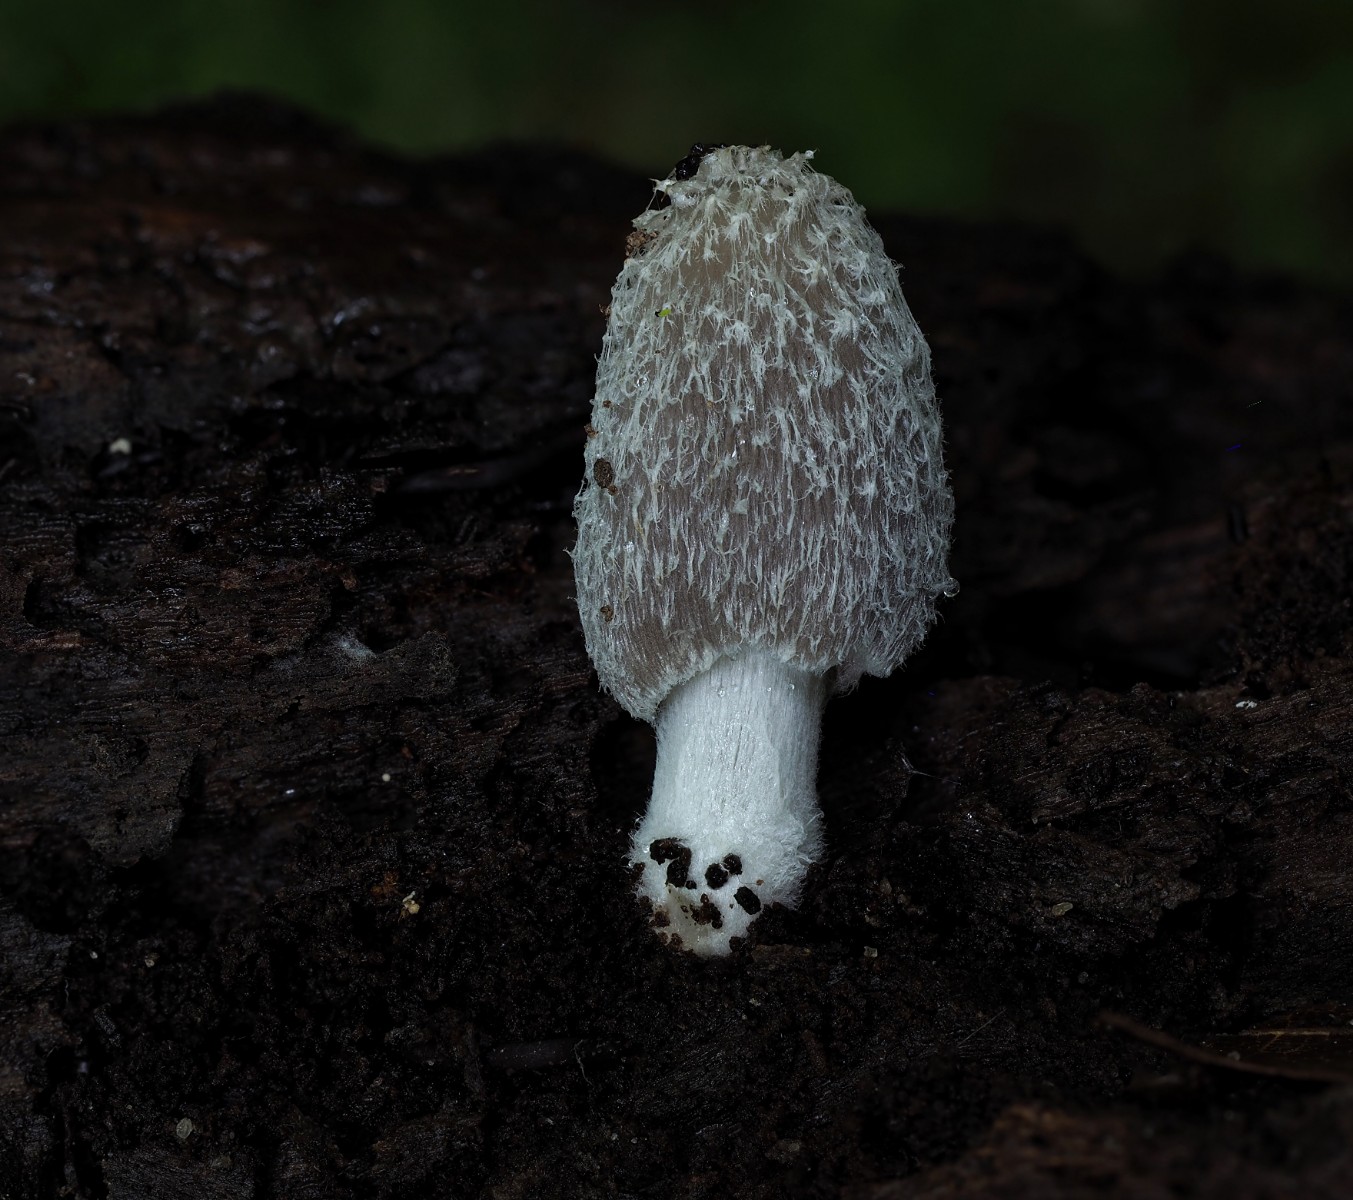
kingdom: Fungi
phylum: Basidiomycota
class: Agaricomycetes
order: Agaricales
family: Psathyrellaceae
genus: Coprinopsis
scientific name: Coprinopsis lagopus
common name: dunstokket blækhat
